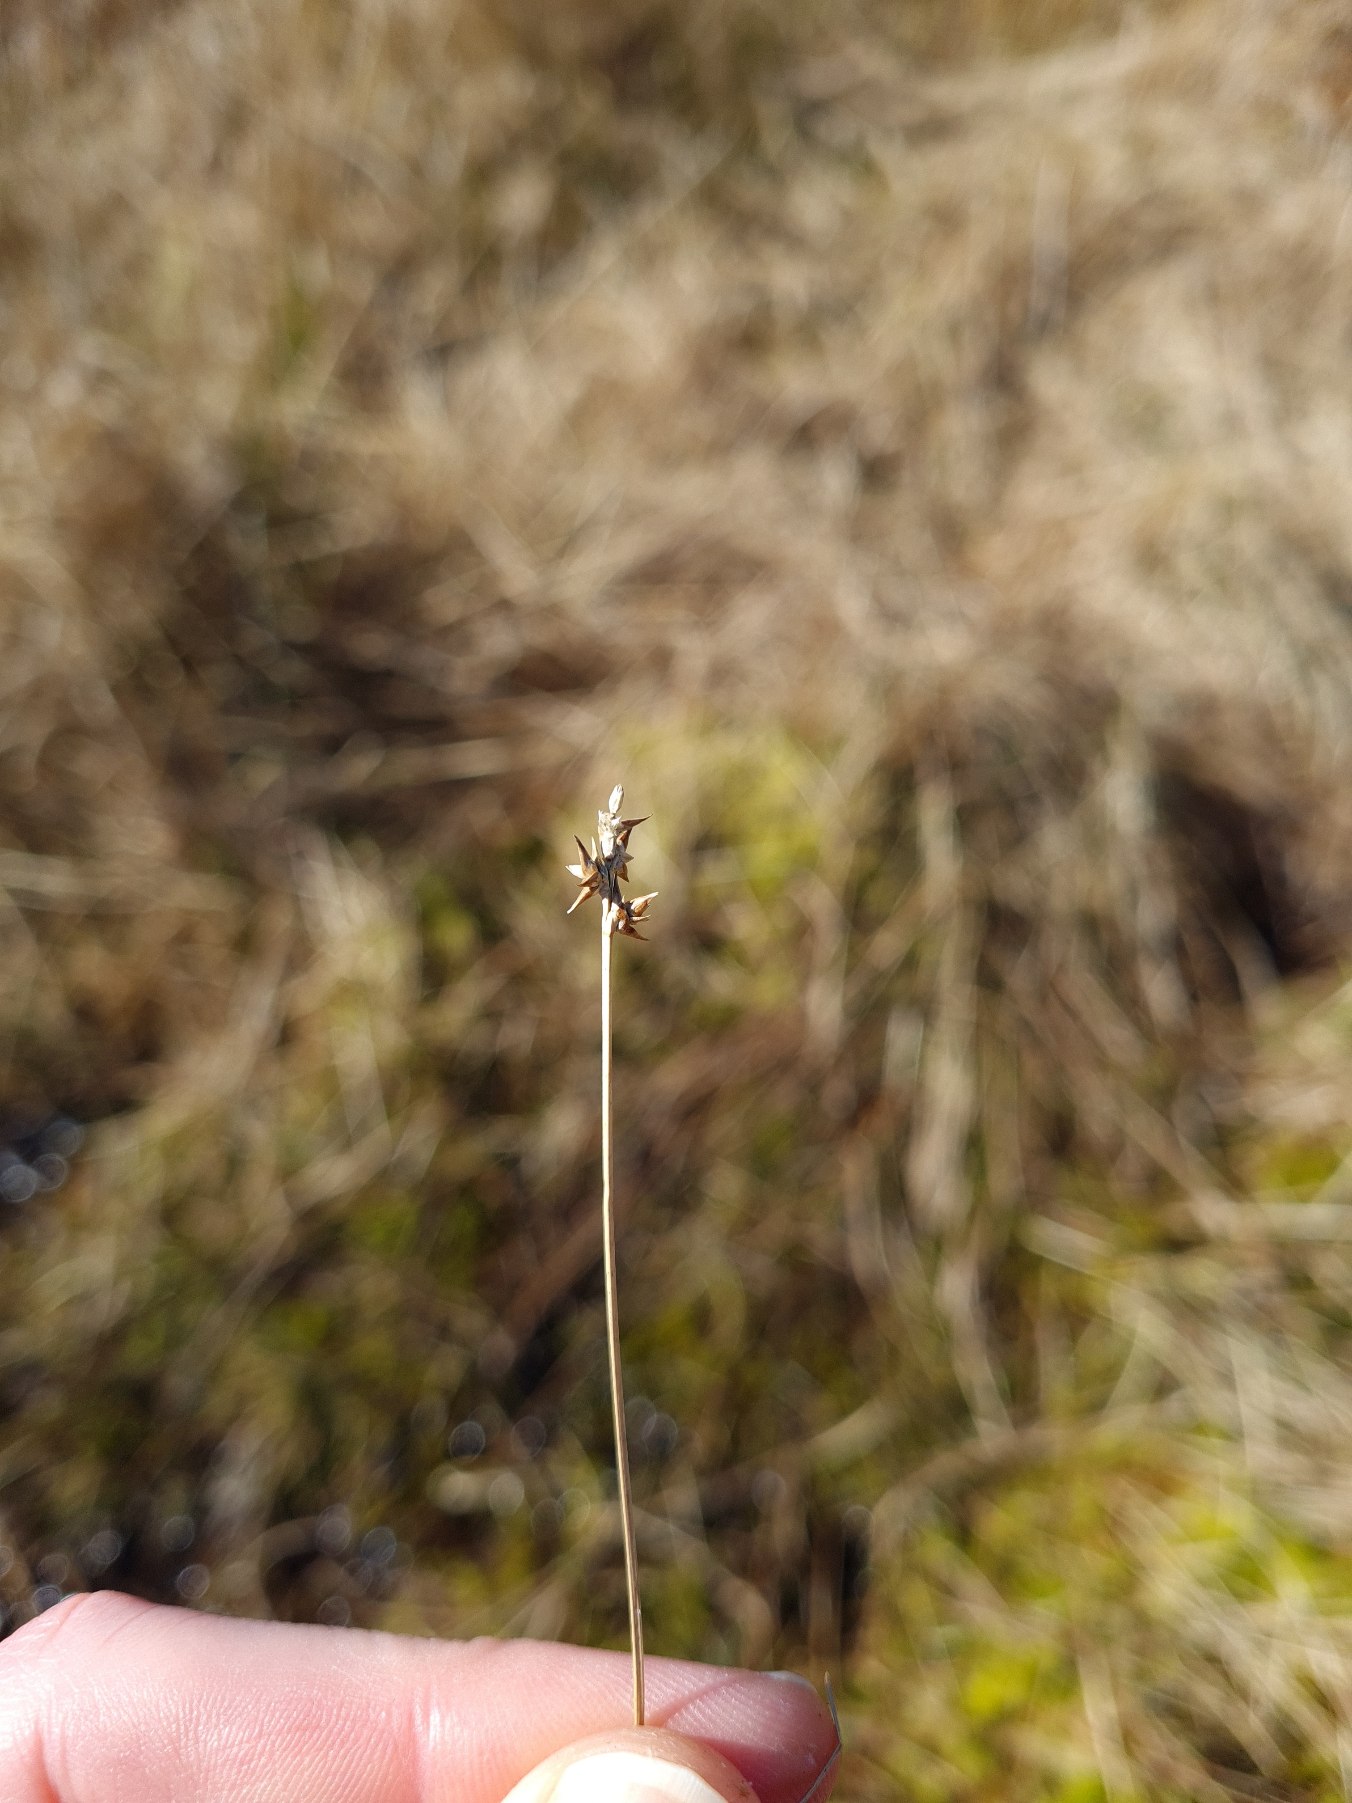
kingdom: Plantae
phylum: Tracheophyta
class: Liliopsida
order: Poales
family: Cyperaceae
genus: Carex
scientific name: Carex echinata
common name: Stjerne-star
